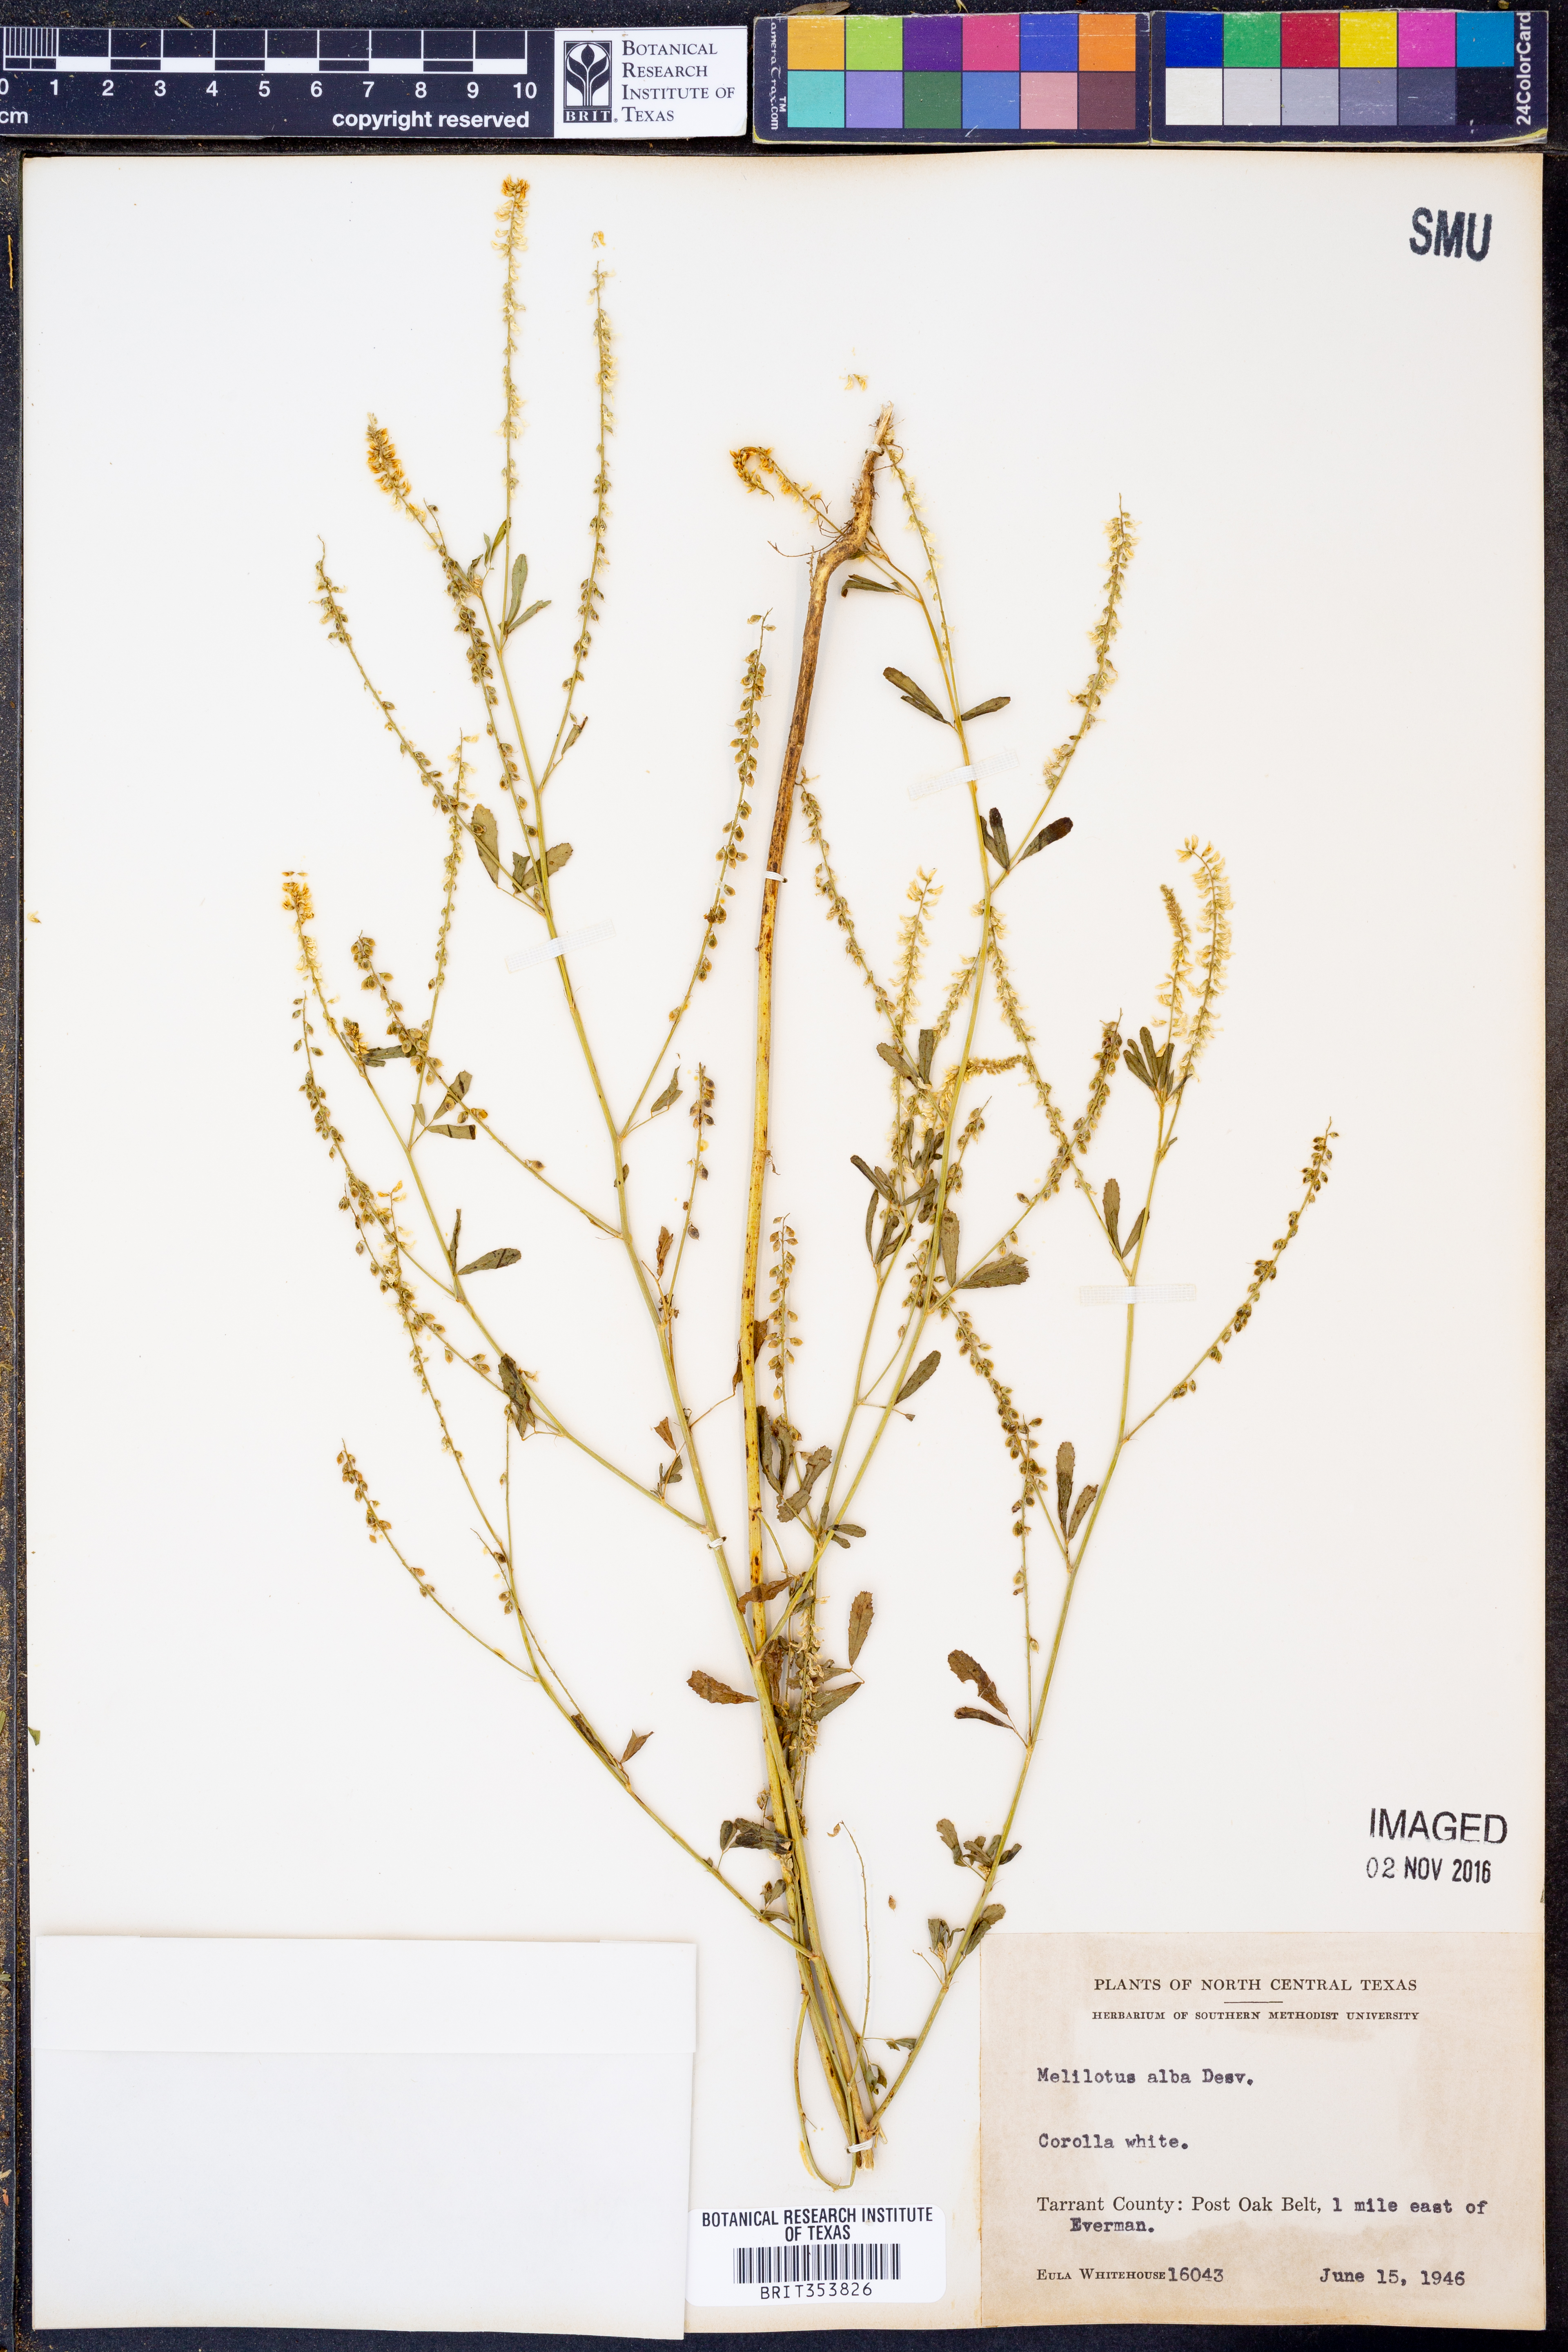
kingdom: Plantae
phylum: Tracheophyta
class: Magnoliopsida
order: Fabales
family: Fabaceae
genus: Melilotus
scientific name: Melilotus albus
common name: White melilot
